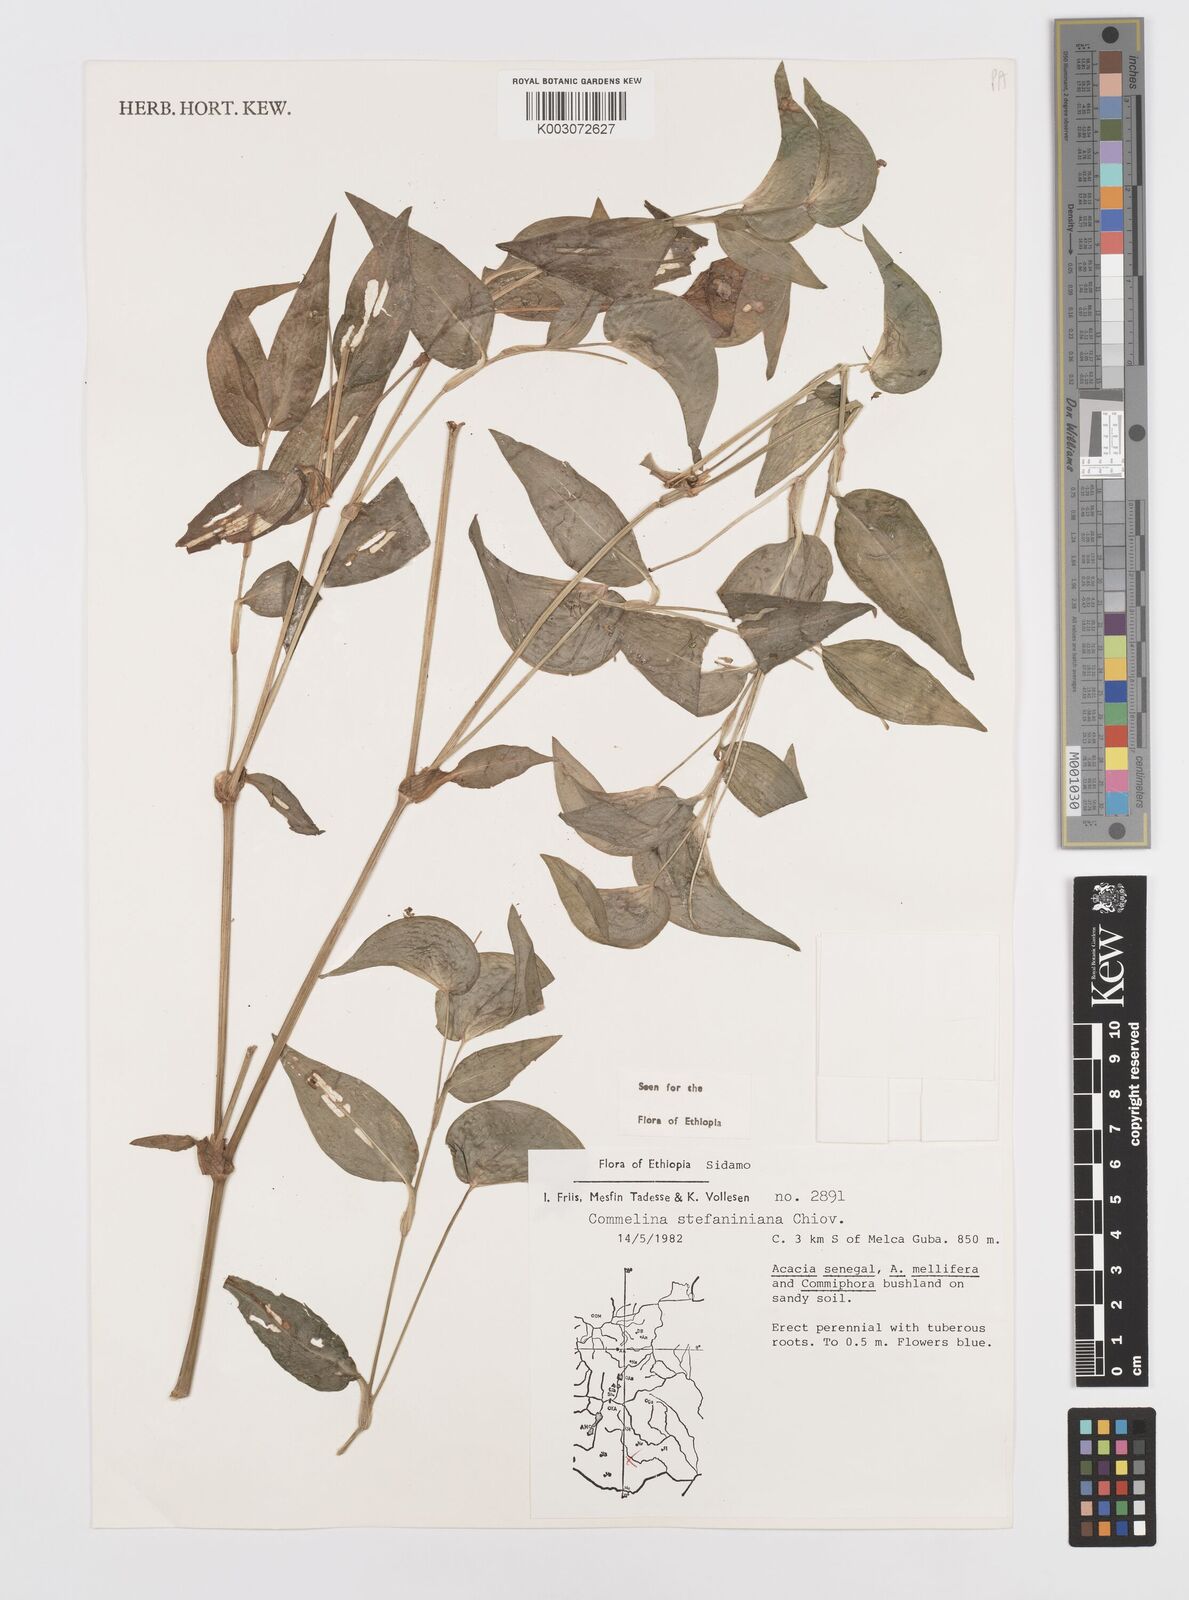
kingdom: Plantae
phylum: Tracheophyta
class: Liliopsida
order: Commelinales
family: Commelinaceae
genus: Commelina
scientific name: Commelina stefaniniana
